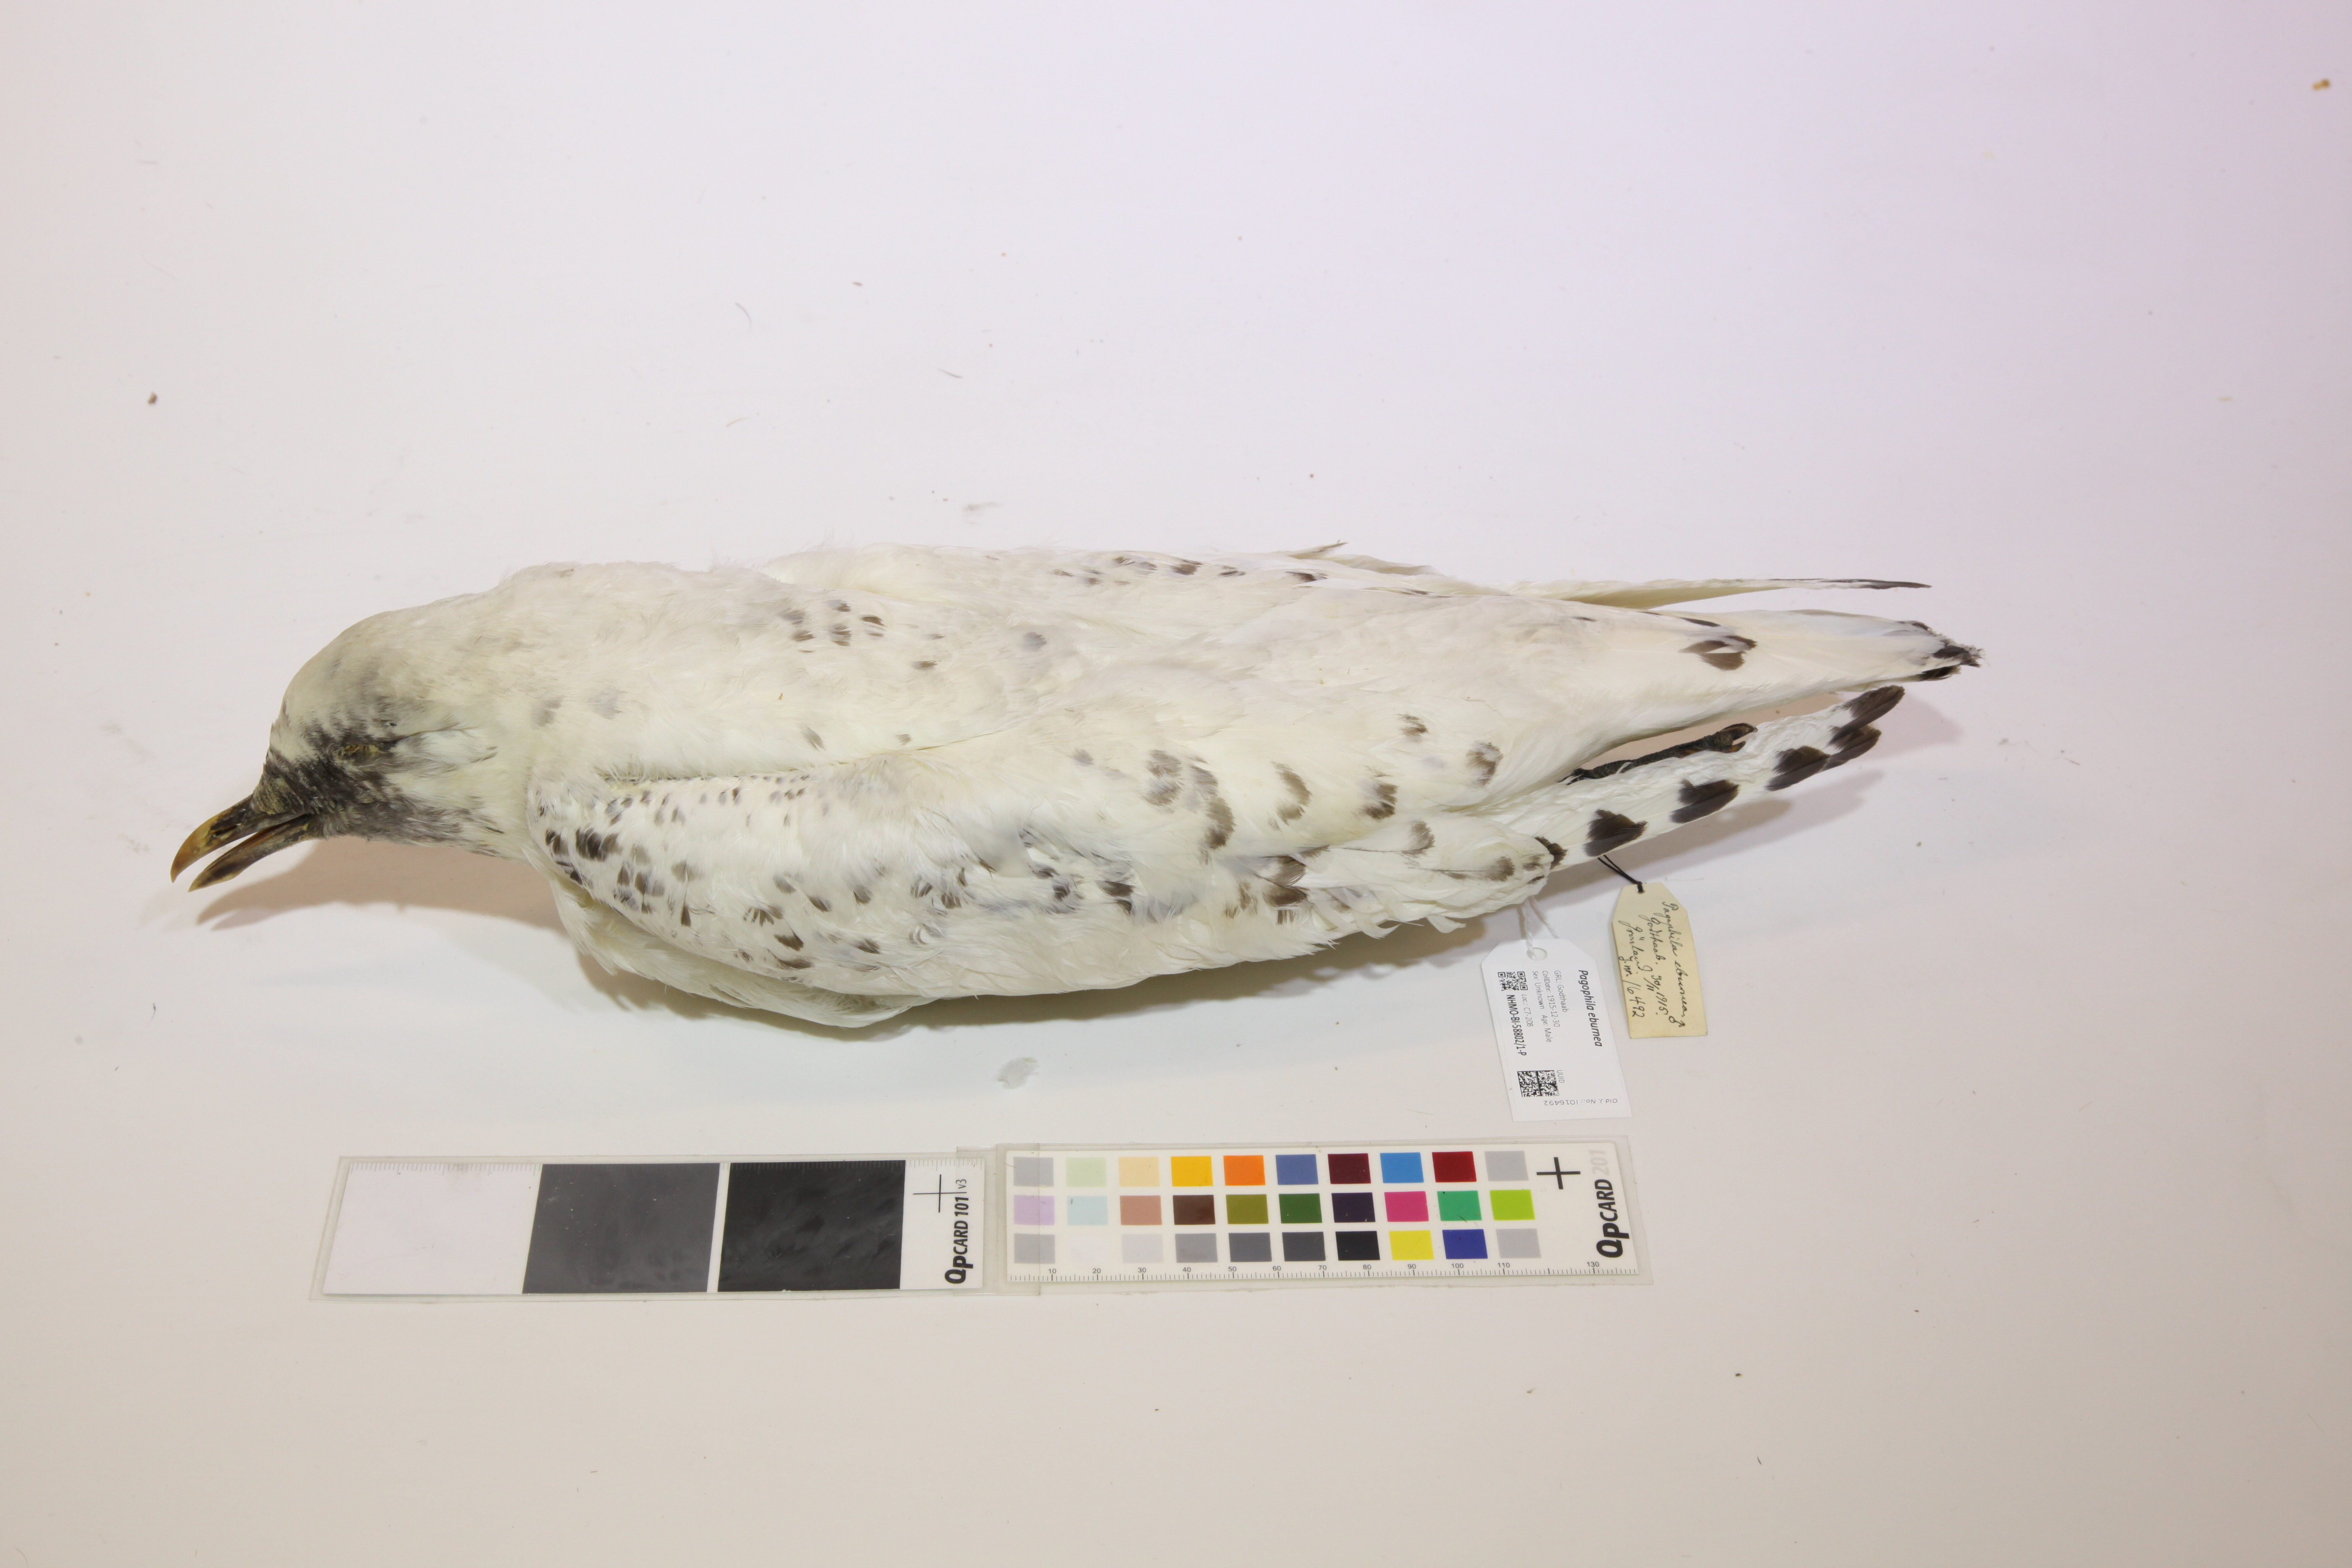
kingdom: Animalia
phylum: Chordata
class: Aves
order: Charadriiformes
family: Laridae
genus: Pagophila
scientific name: Pagophila eburnea
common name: Ivory gull
